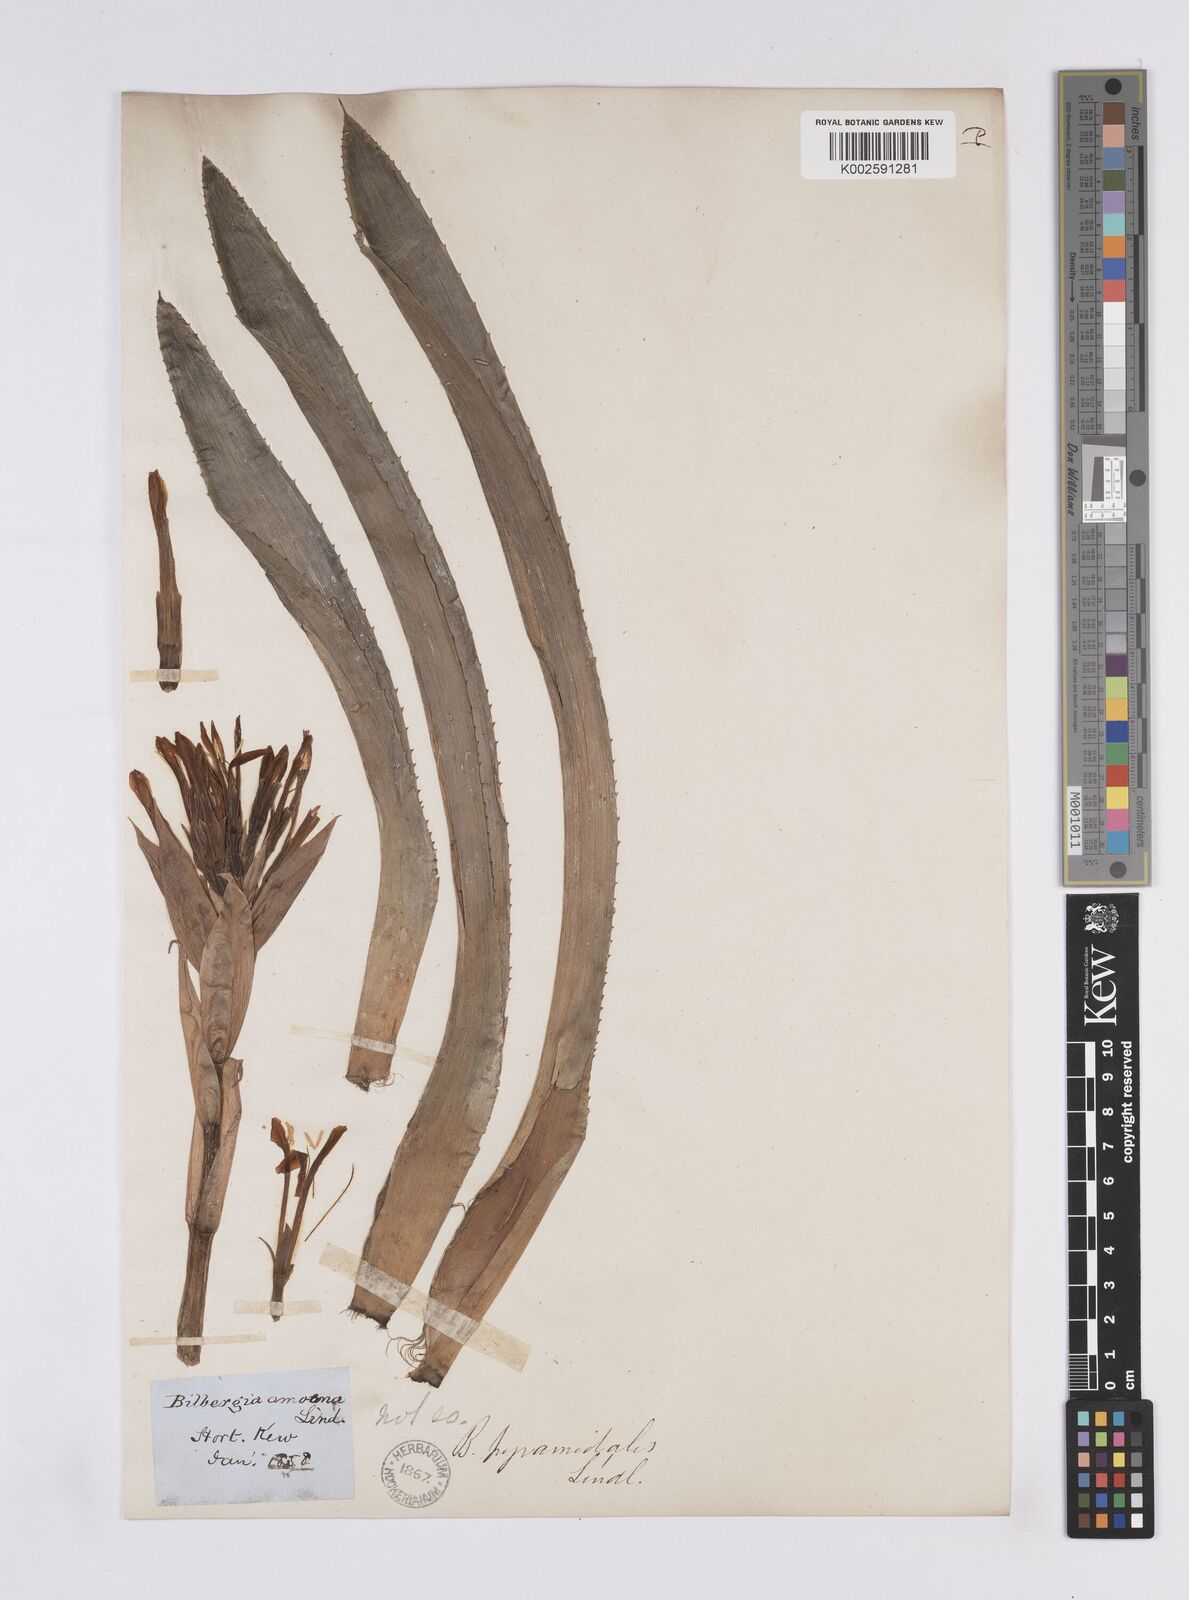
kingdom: Plantae
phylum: Tracheophyta
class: Liliopsida
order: Poales
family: Bromeliaceae
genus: Billbergia
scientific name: Billbergia pyramidalis
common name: Foolproofplant
